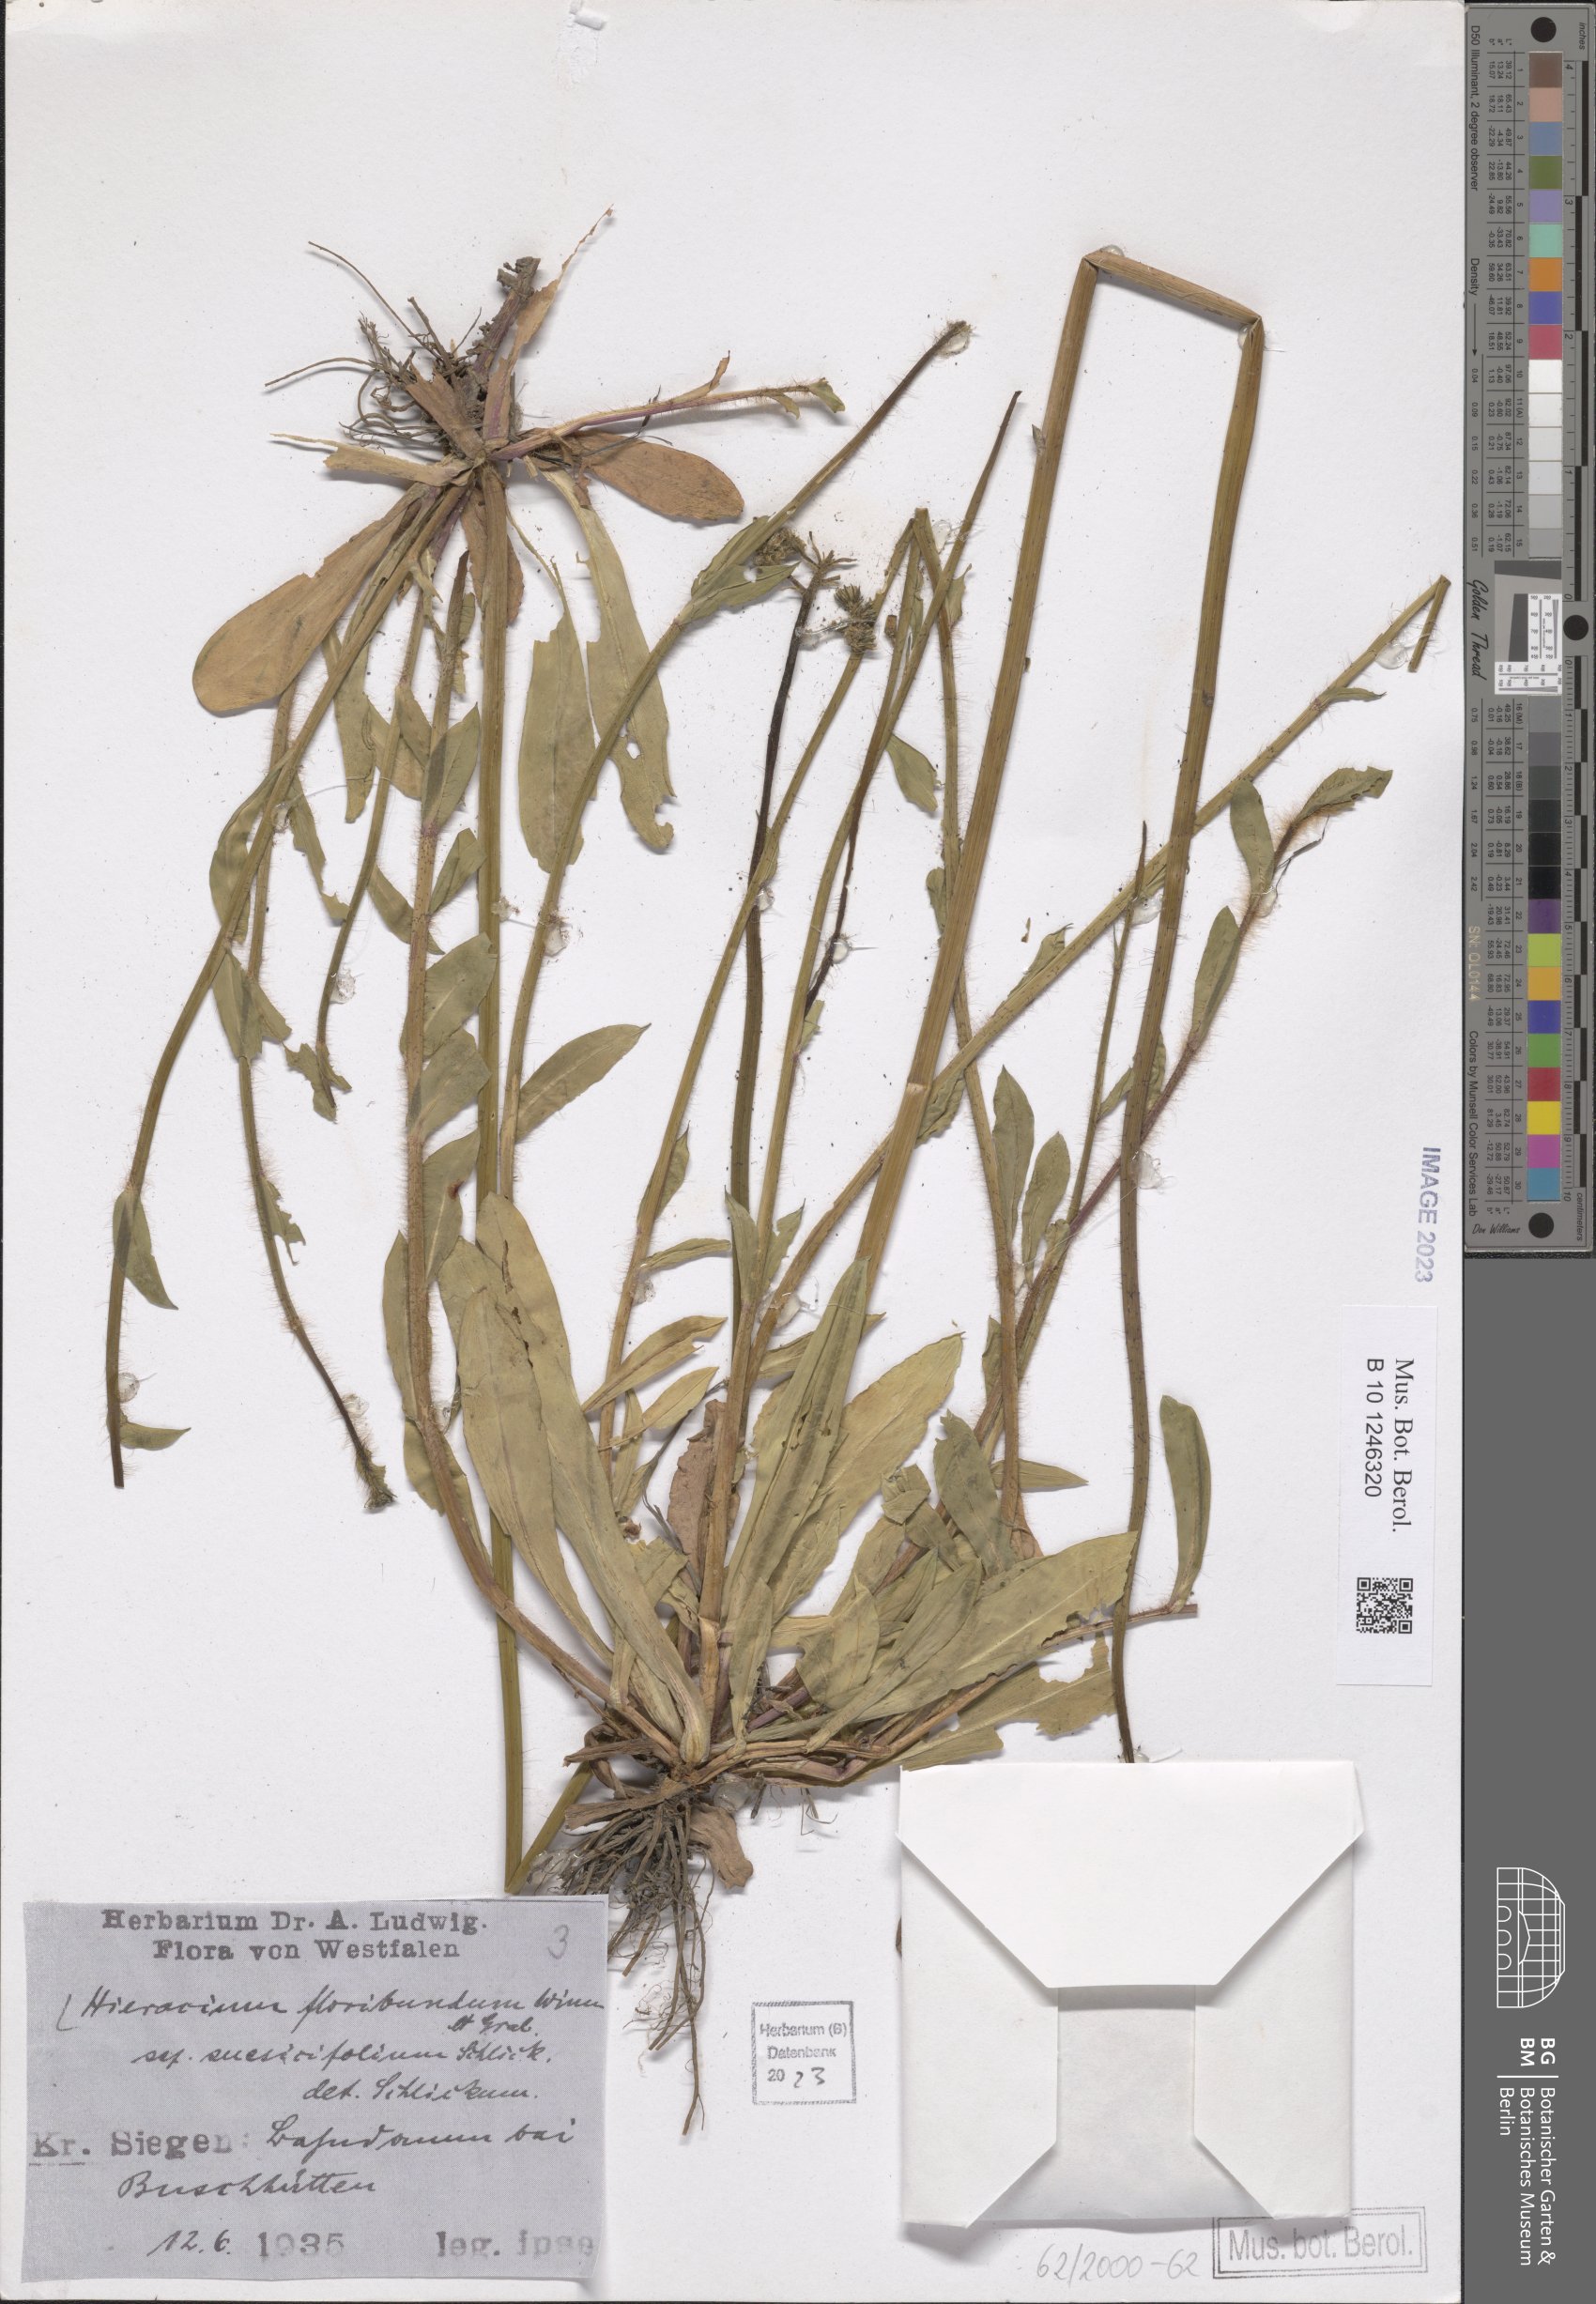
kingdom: Plantae
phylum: Tracheophyta
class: Magnoliopsida
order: Asterales
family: Asteraceae
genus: Hieracium
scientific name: Hieracium floribundum
